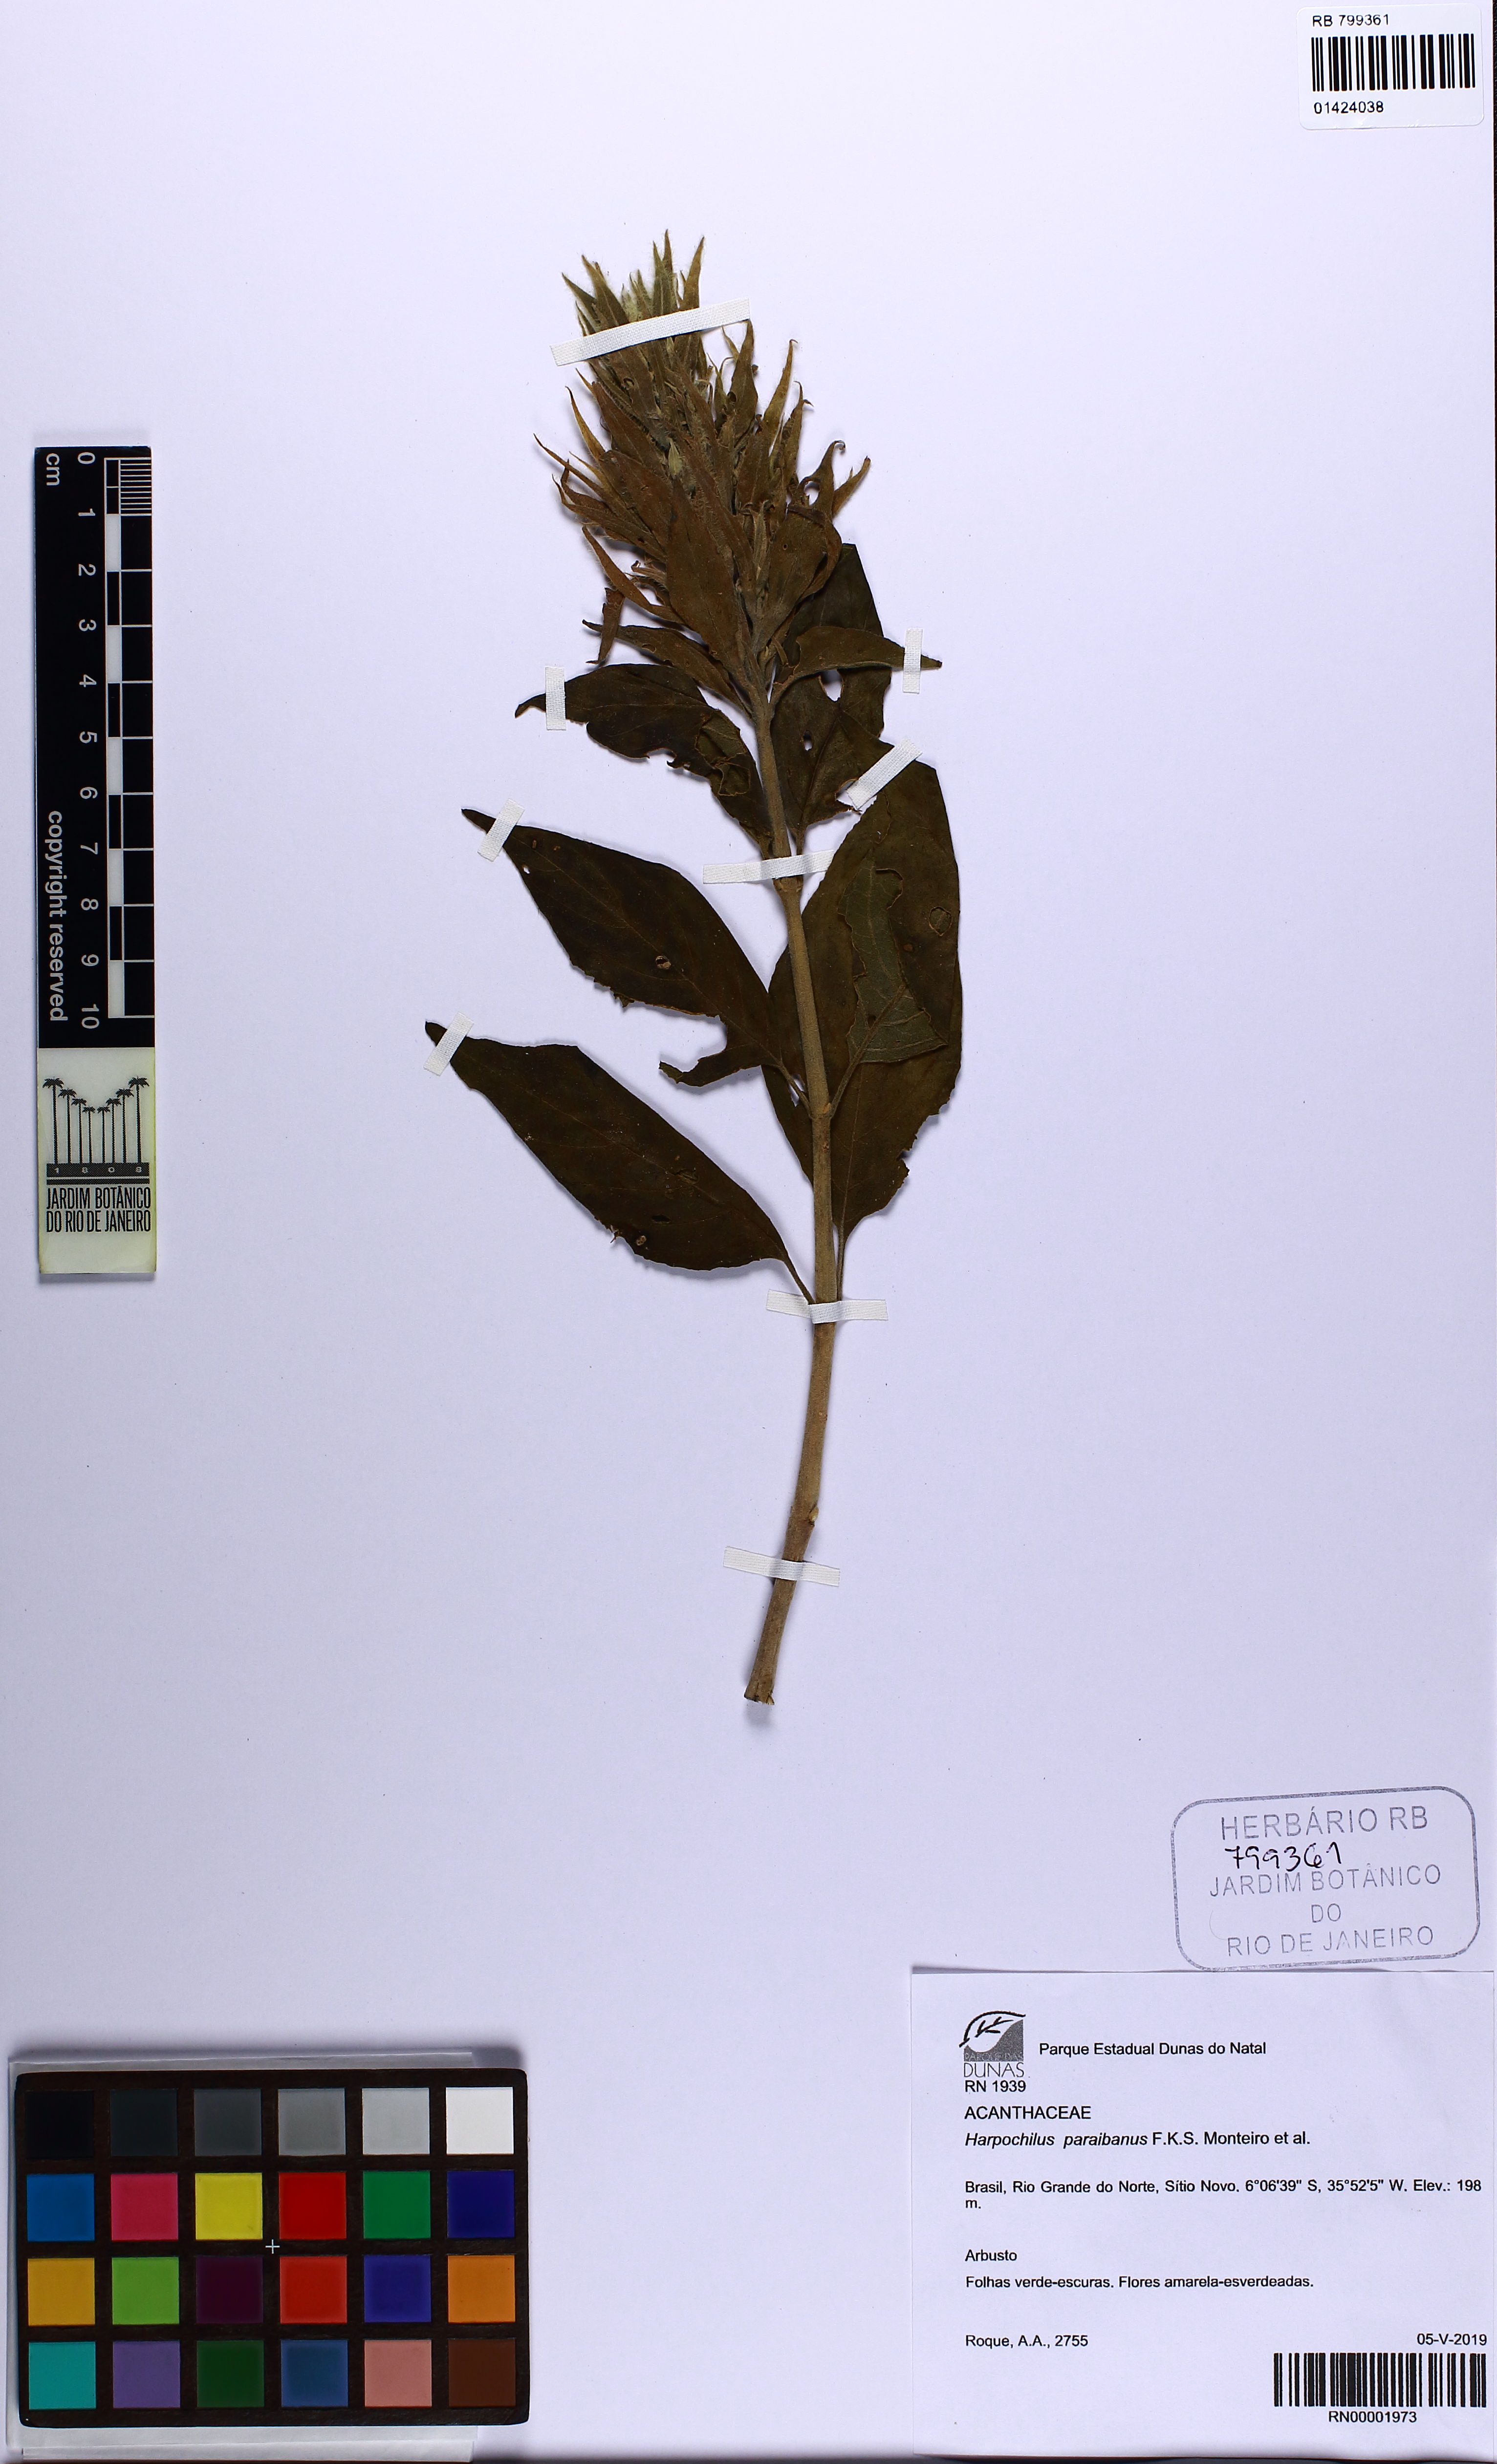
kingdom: Plantae
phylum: Tracheophyta
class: Magnoliopsida
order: Lamiales
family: Acanthaceae
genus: Harpochilus
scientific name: Harpochilus paraibanus
